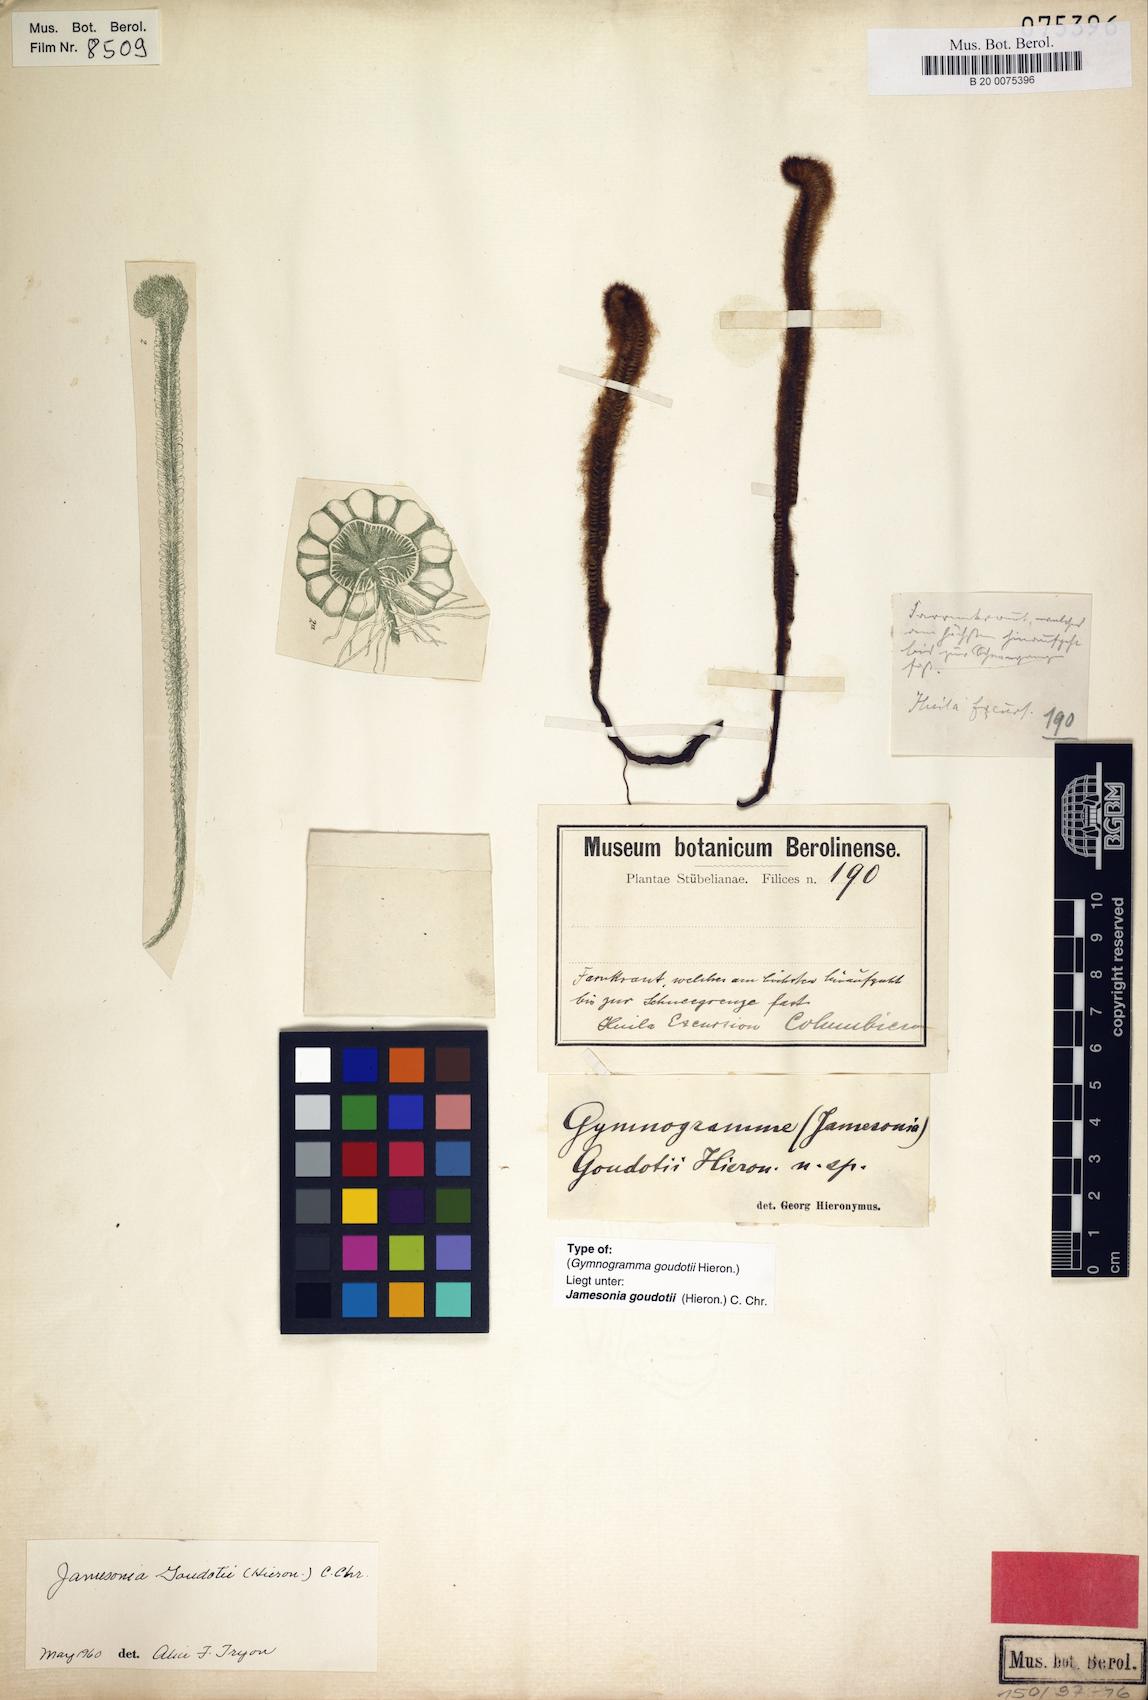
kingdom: Plantae
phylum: Tracheophyta
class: Polypodiopsida
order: Polypodiales
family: Pteridaceae
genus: Jamesonia
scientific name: Jamesonia goudotii
